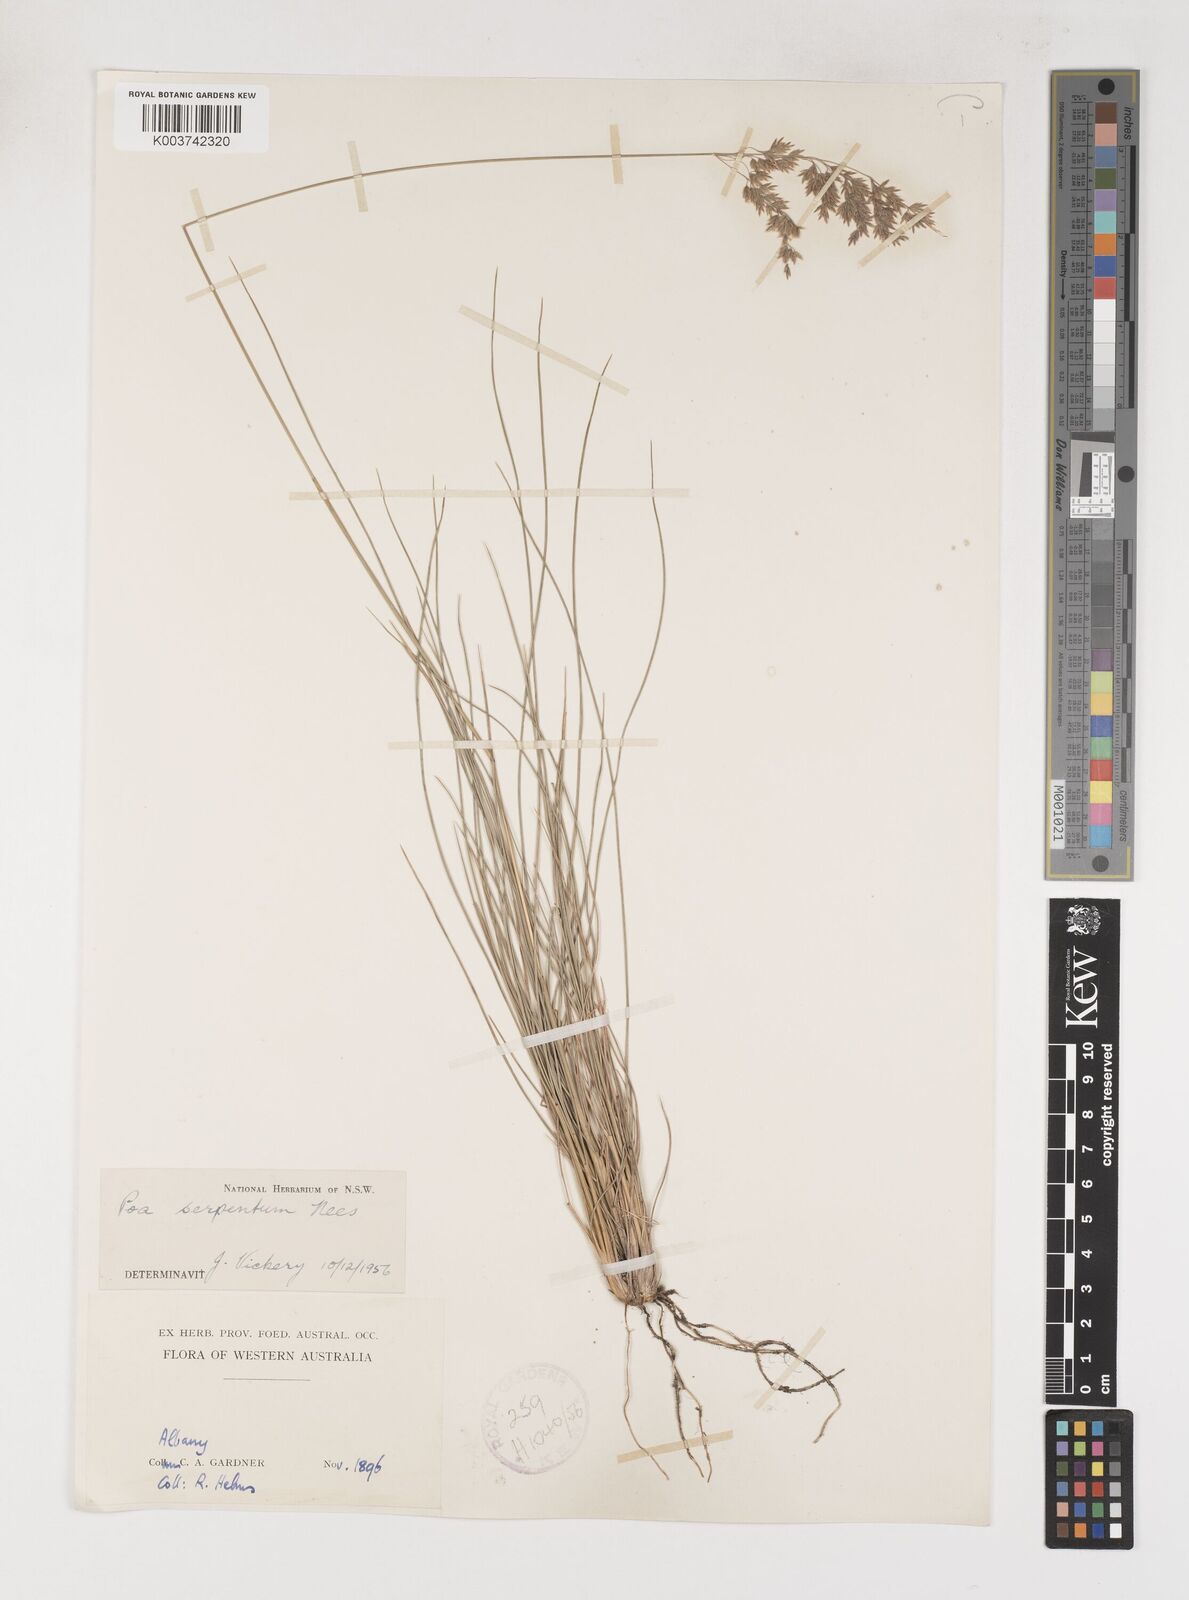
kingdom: Plantae
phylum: Tracheophyta
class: Liliopsida
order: Poales
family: Poaceae
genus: Poa
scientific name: Poa porphyroclados
